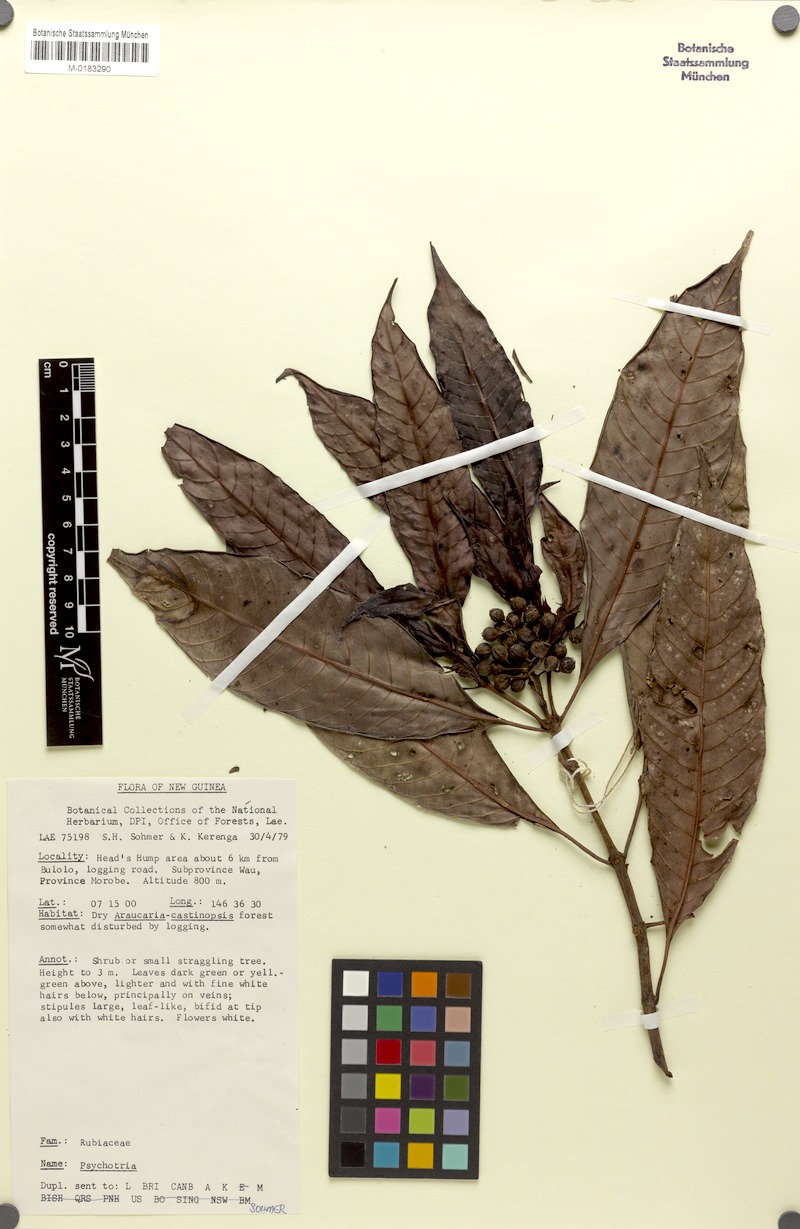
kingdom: Plantae
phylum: Tracheophyta
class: Magnoliopsida
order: Gentianales
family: Rubiaceae
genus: Psychotria
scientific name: Psychotria johnsii
